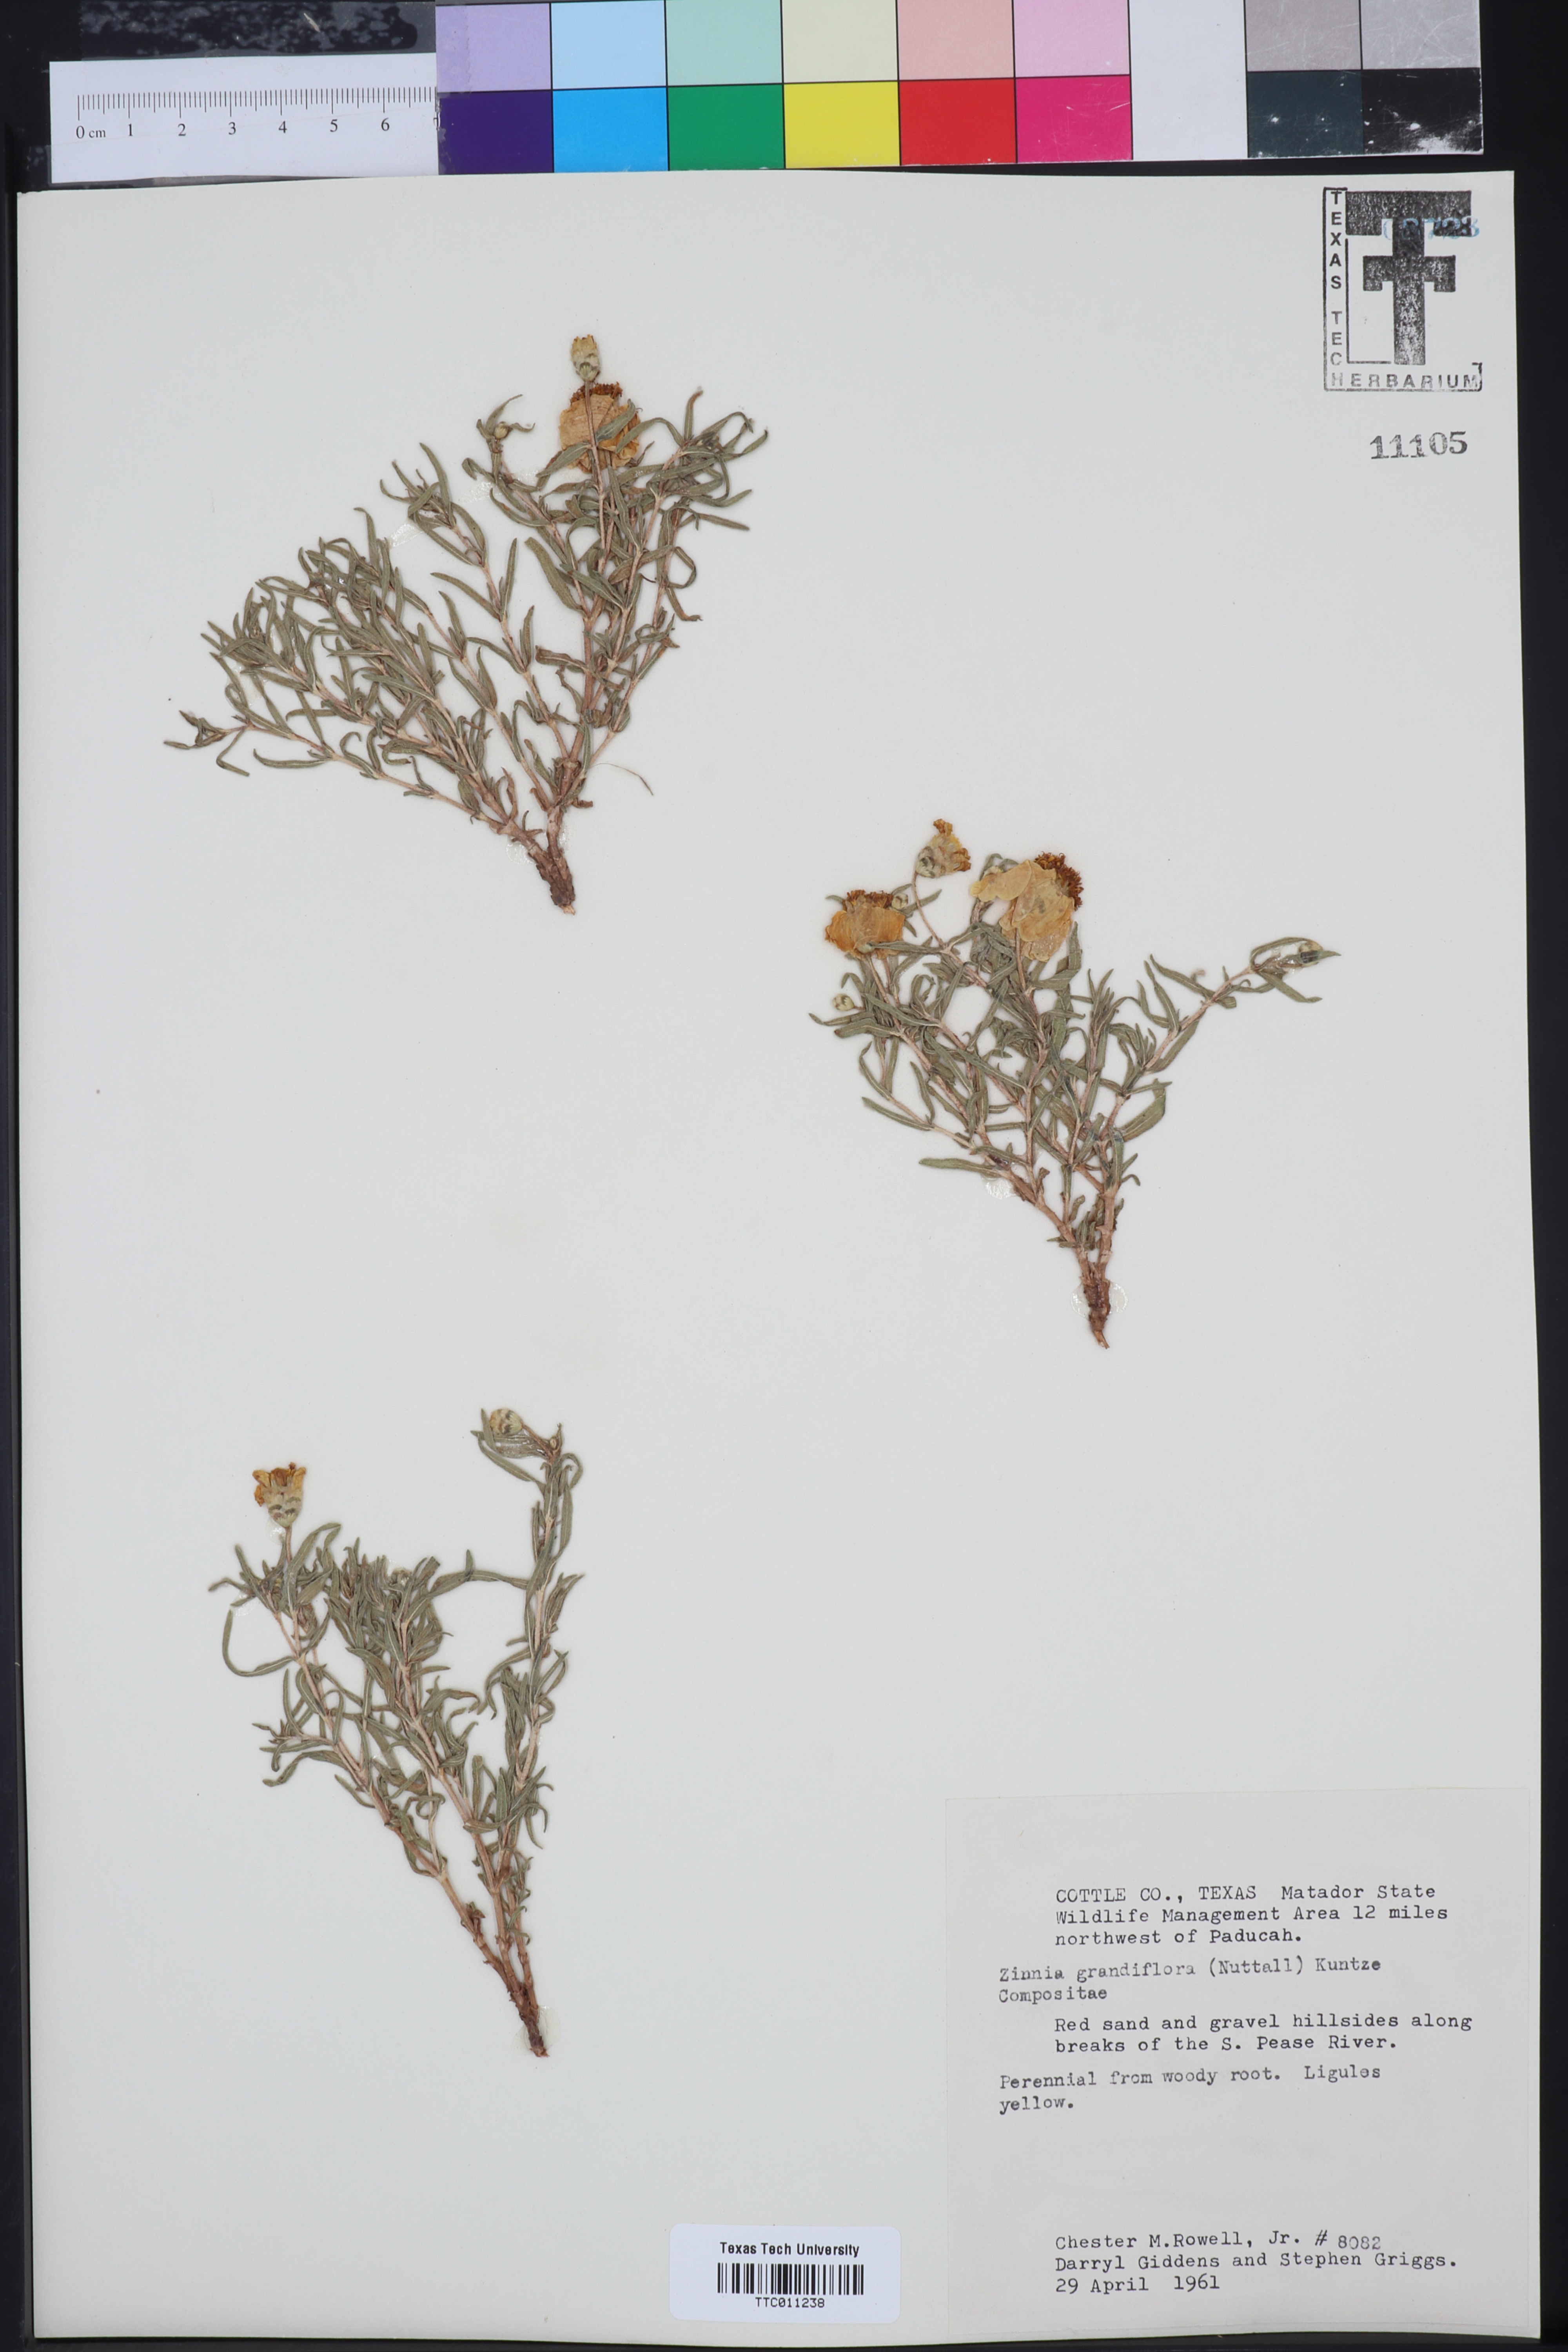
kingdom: Plantae
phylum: Tracheophyta
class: Magnoliopsida
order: Asterales
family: Asteraceae
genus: Zinnia
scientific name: Zinnia grandiflora
